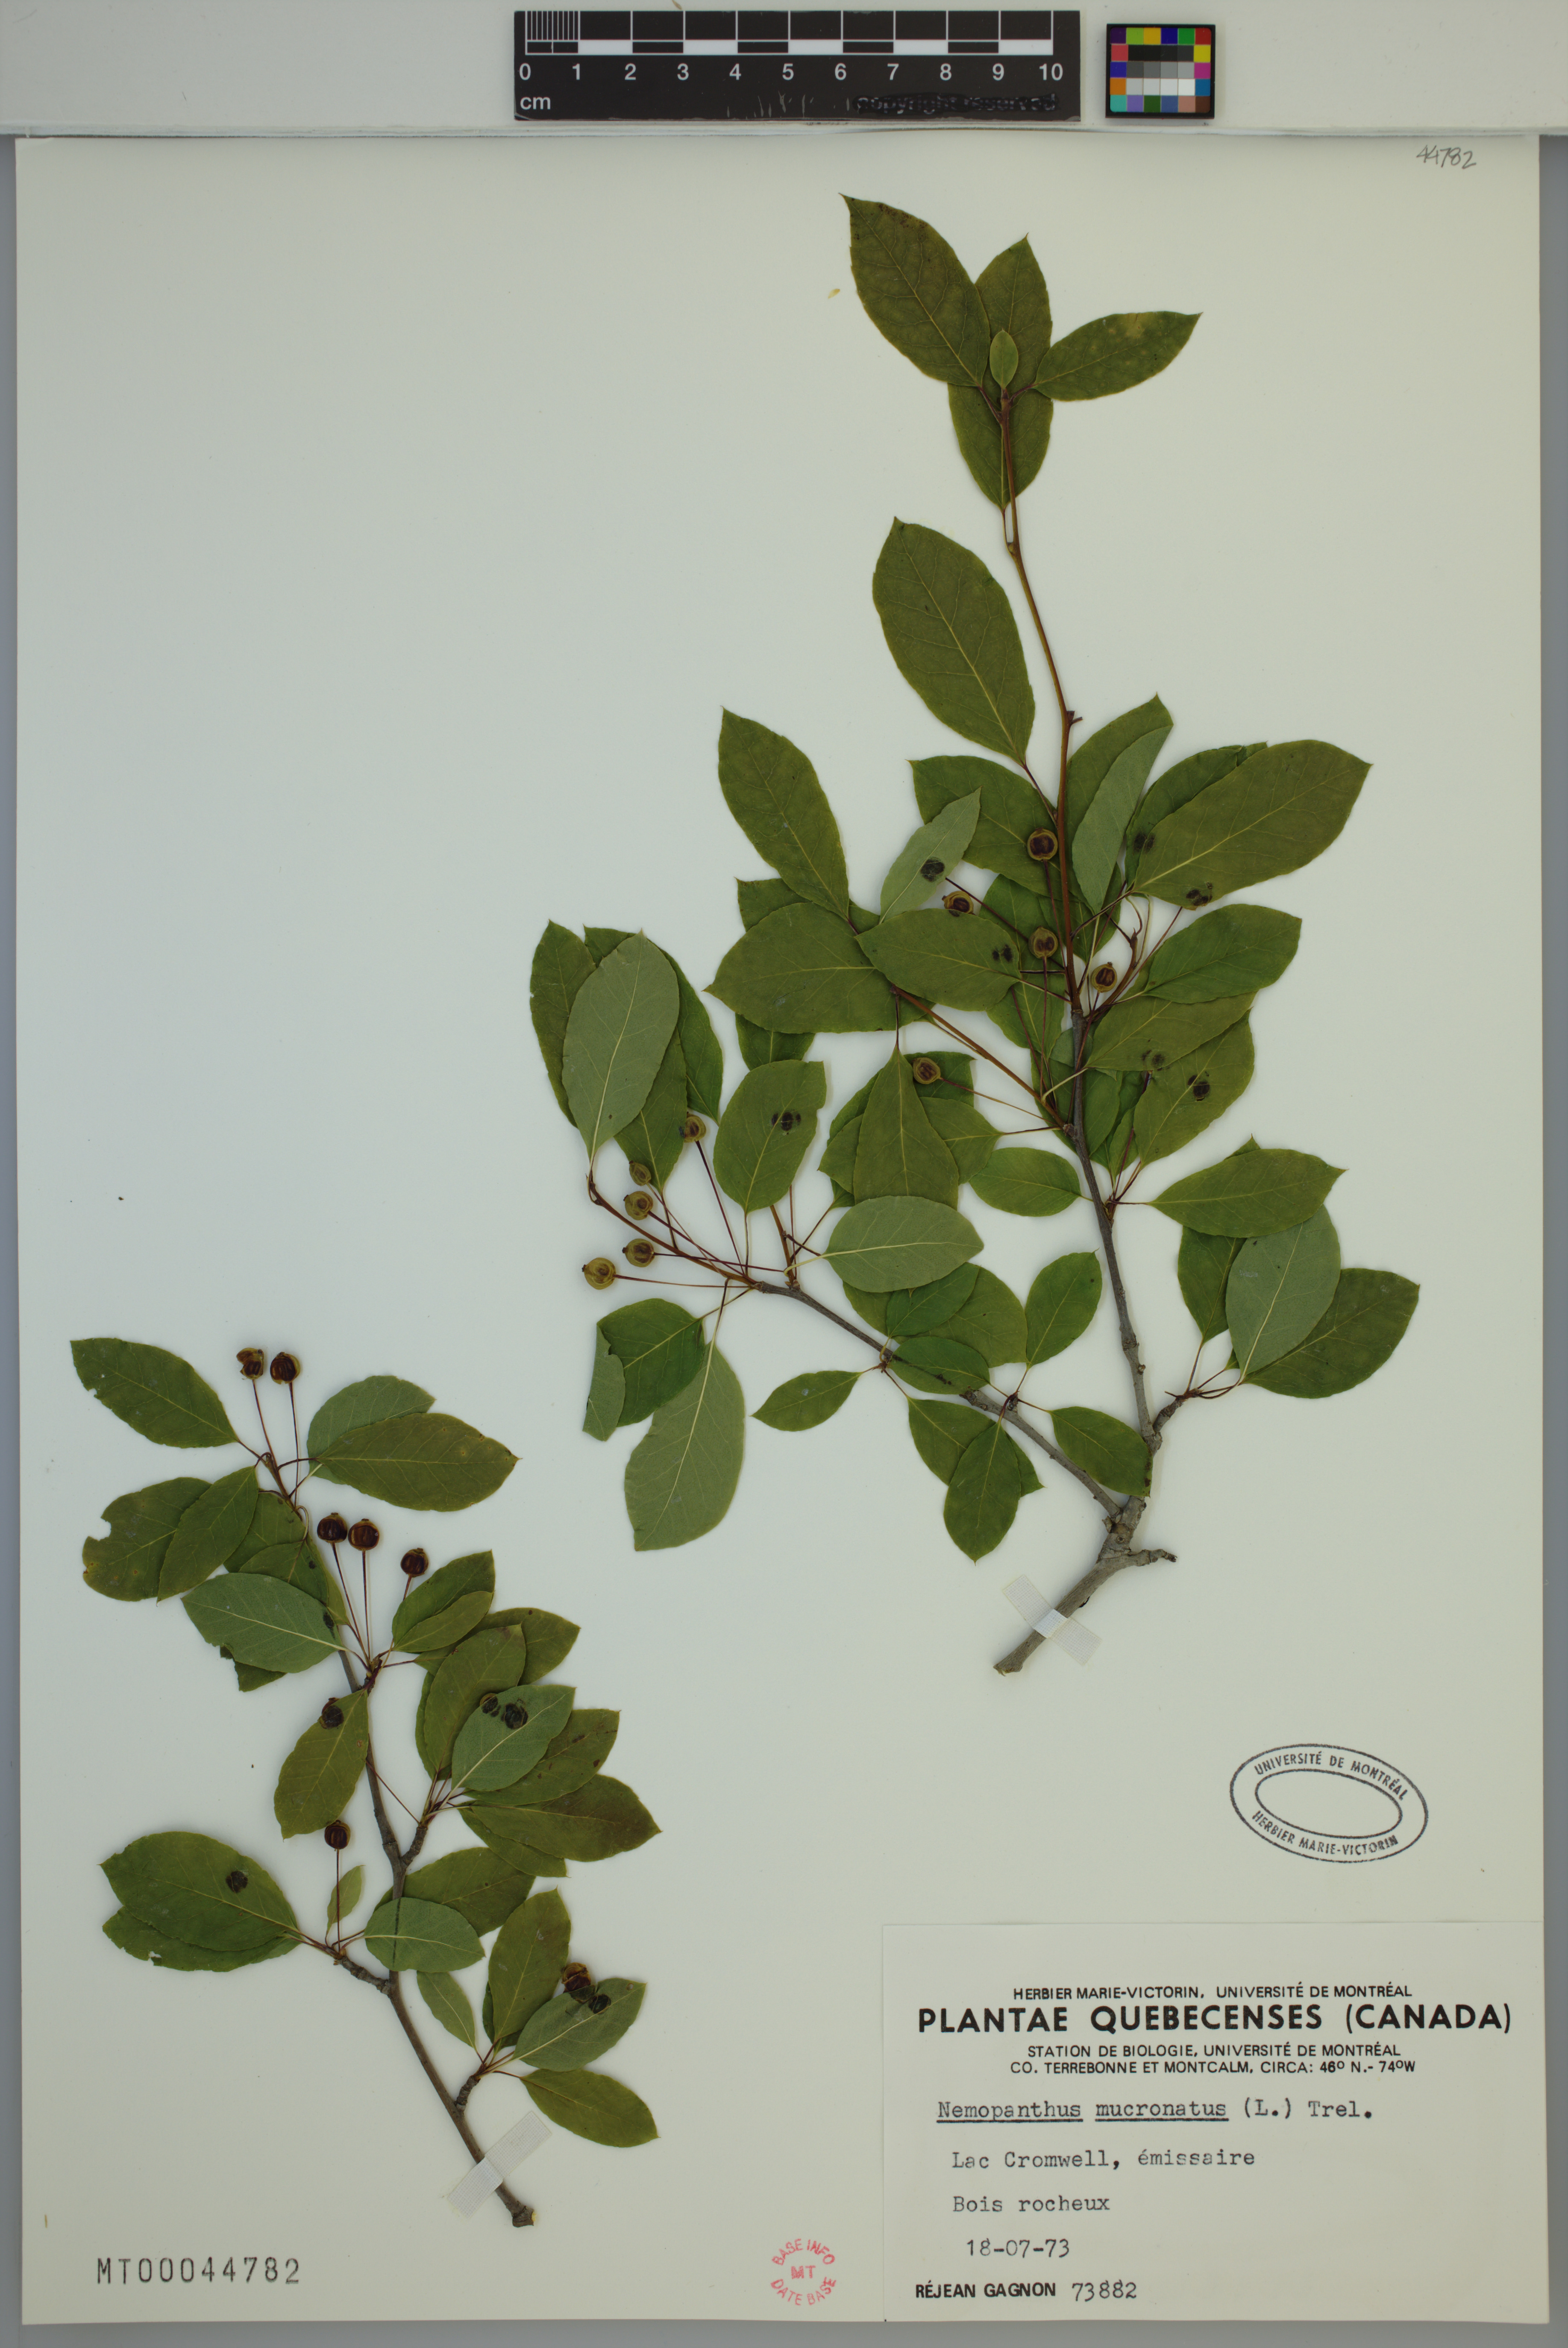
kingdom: Plantae
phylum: Tracheophyta
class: Magnoliopsida
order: Aquifoliales
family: Aquifoliaceae
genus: Ilex
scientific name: Ilex mucronata
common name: Catberry
